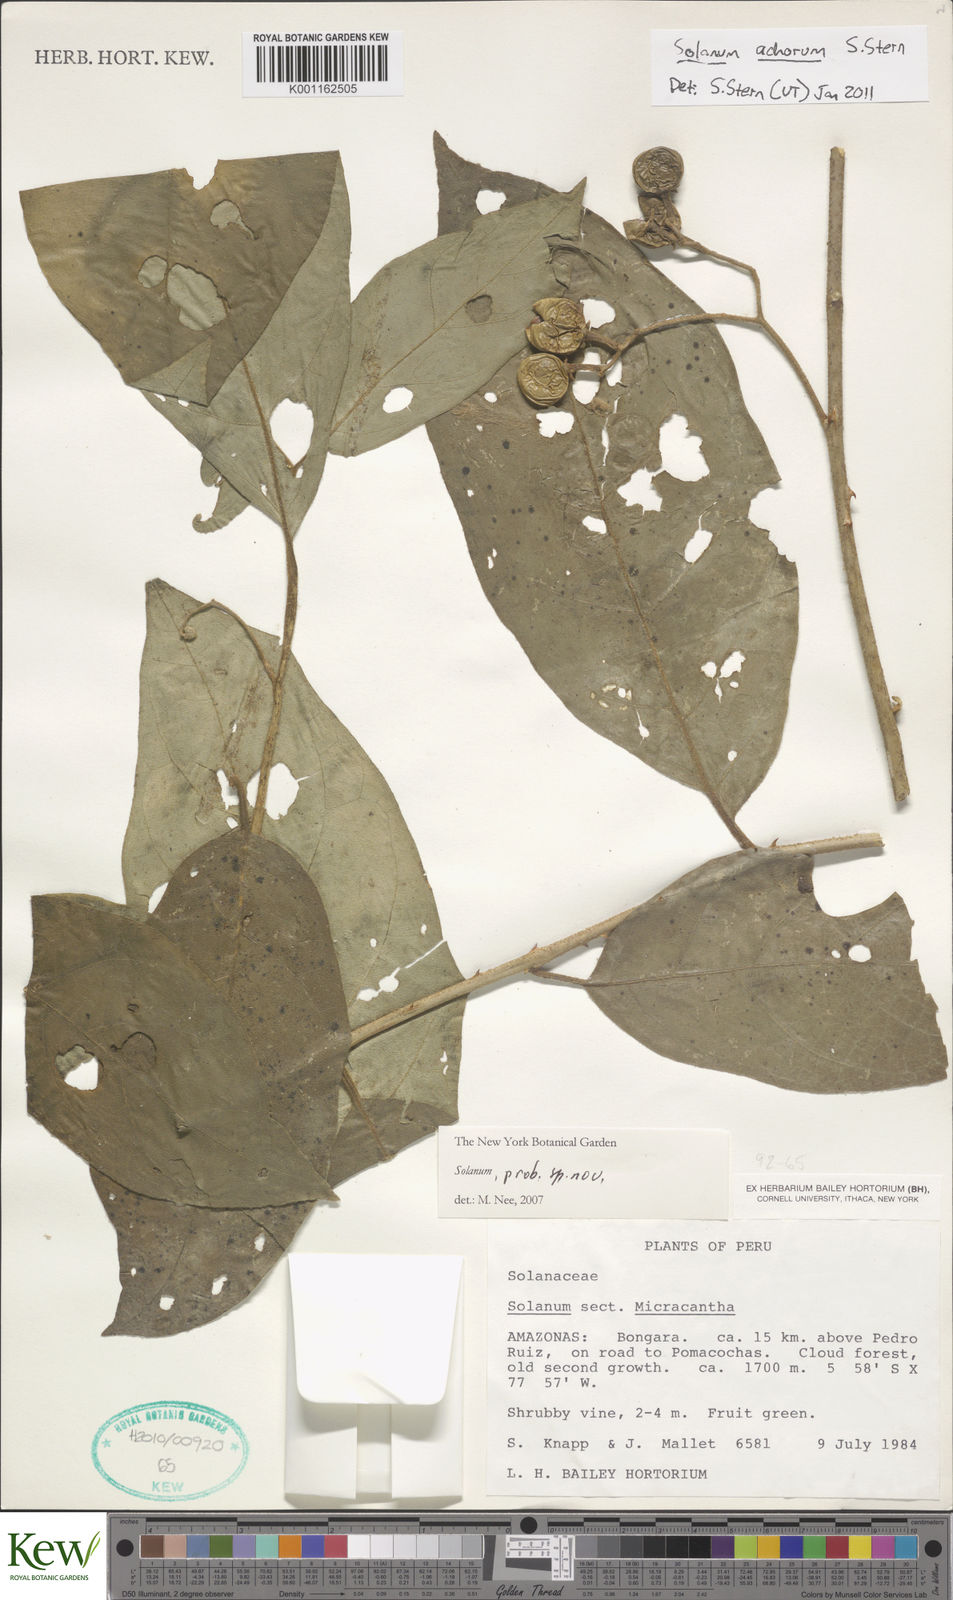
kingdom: Plantae
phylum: Tracheophyta
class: Magnoliopsida
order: Solanales
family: Solanaceae
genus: Solanum
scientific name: Solanum achorum
